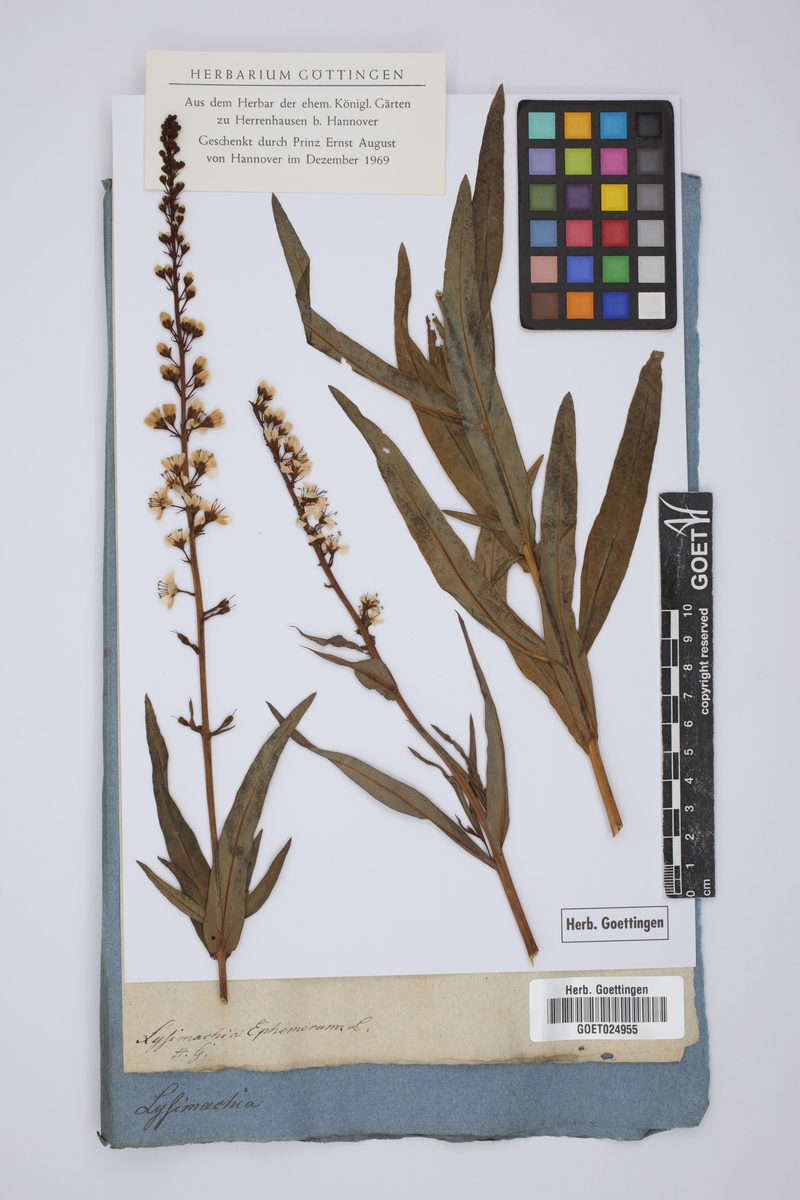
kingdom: Plantae
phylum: Tracheophyta
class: Magnoliopsida
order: Ericales
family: Primulaceae
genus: Lysimachia
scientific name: Lysimachia ephemerum
